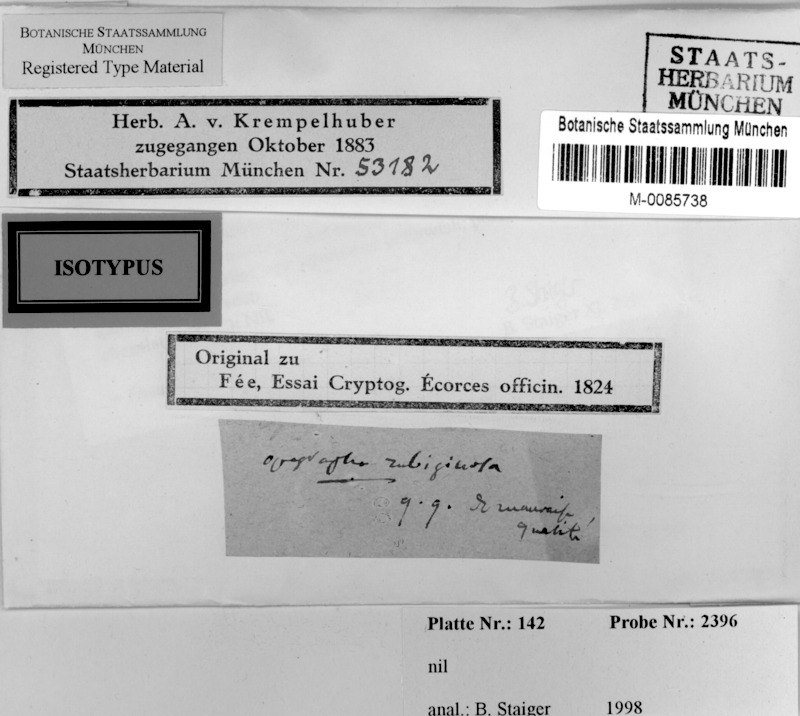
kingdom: Fungi
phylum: Ascomycota
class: Lecanoromycetes
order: Ostropales
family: Graphidaceae
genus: Fissurina
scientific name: Fissurina rubiginosa
